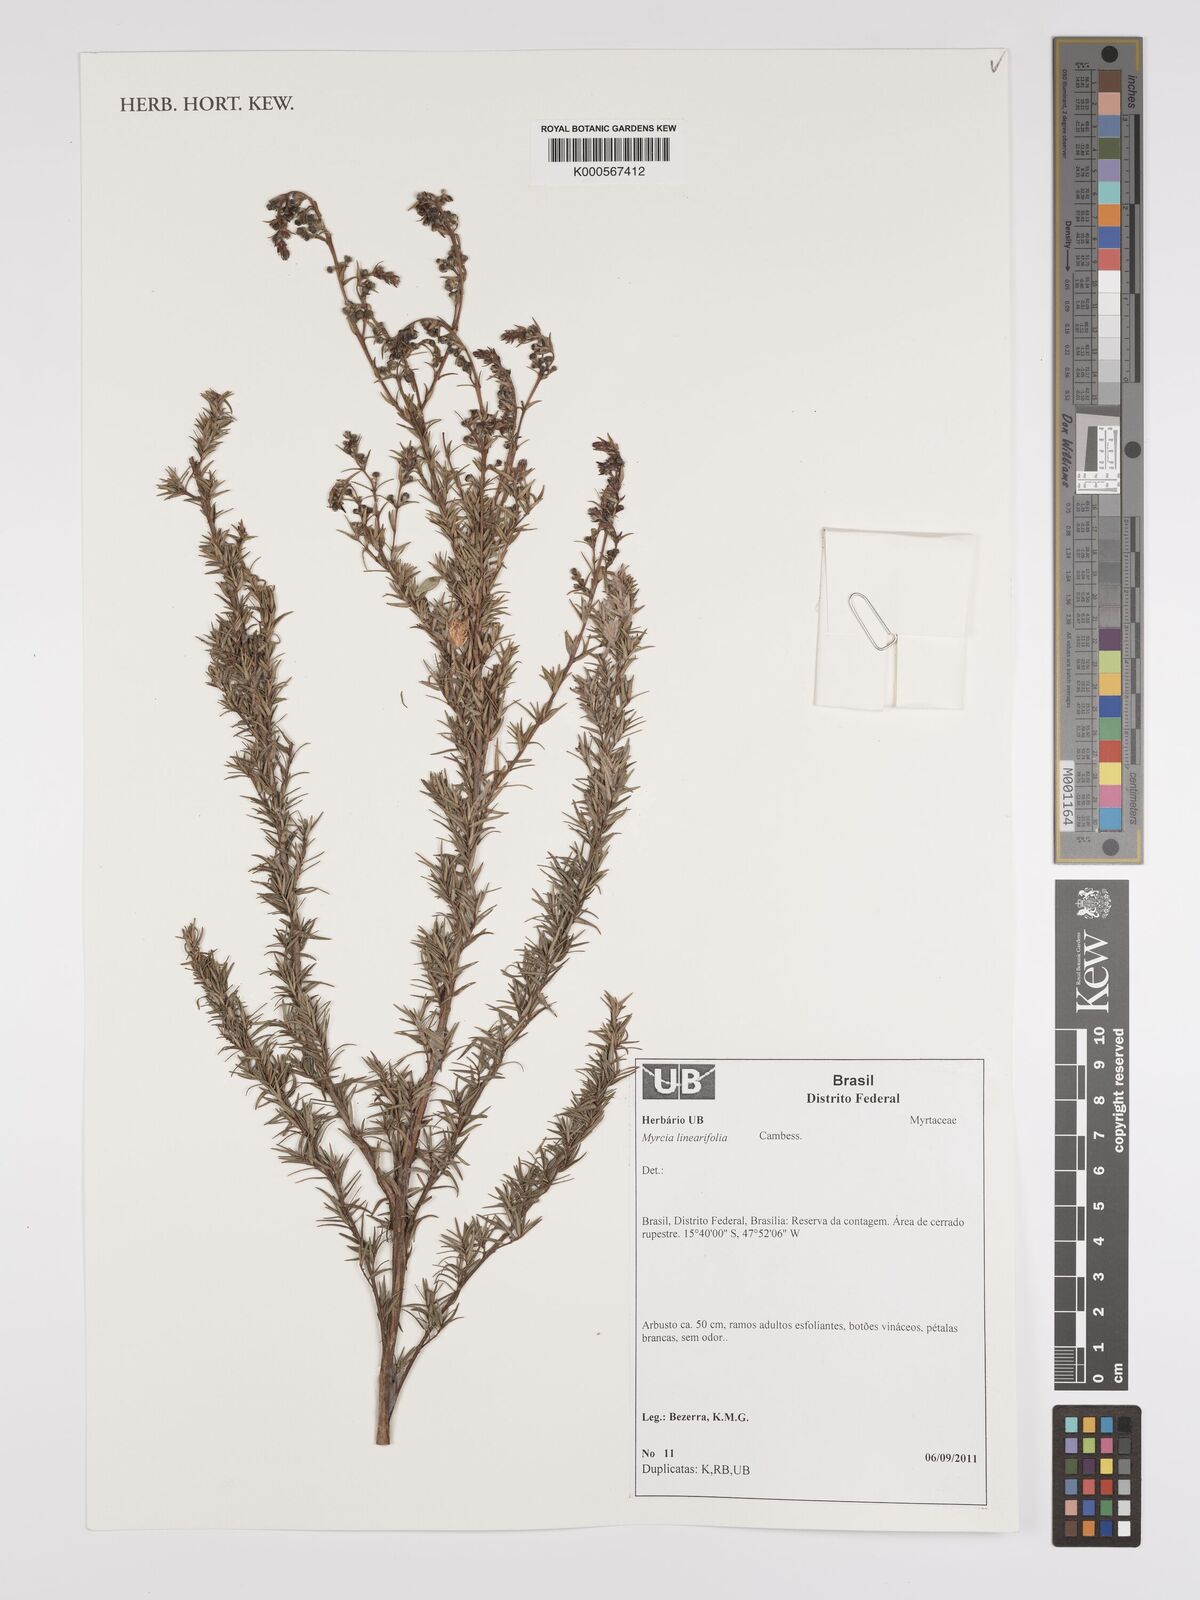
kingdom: Plantae
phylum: Tracheophyta
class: Magnoliopsida
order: Myrtales
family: Myrtaceae
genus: Myrcia
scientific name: Myrcia linearifolia
